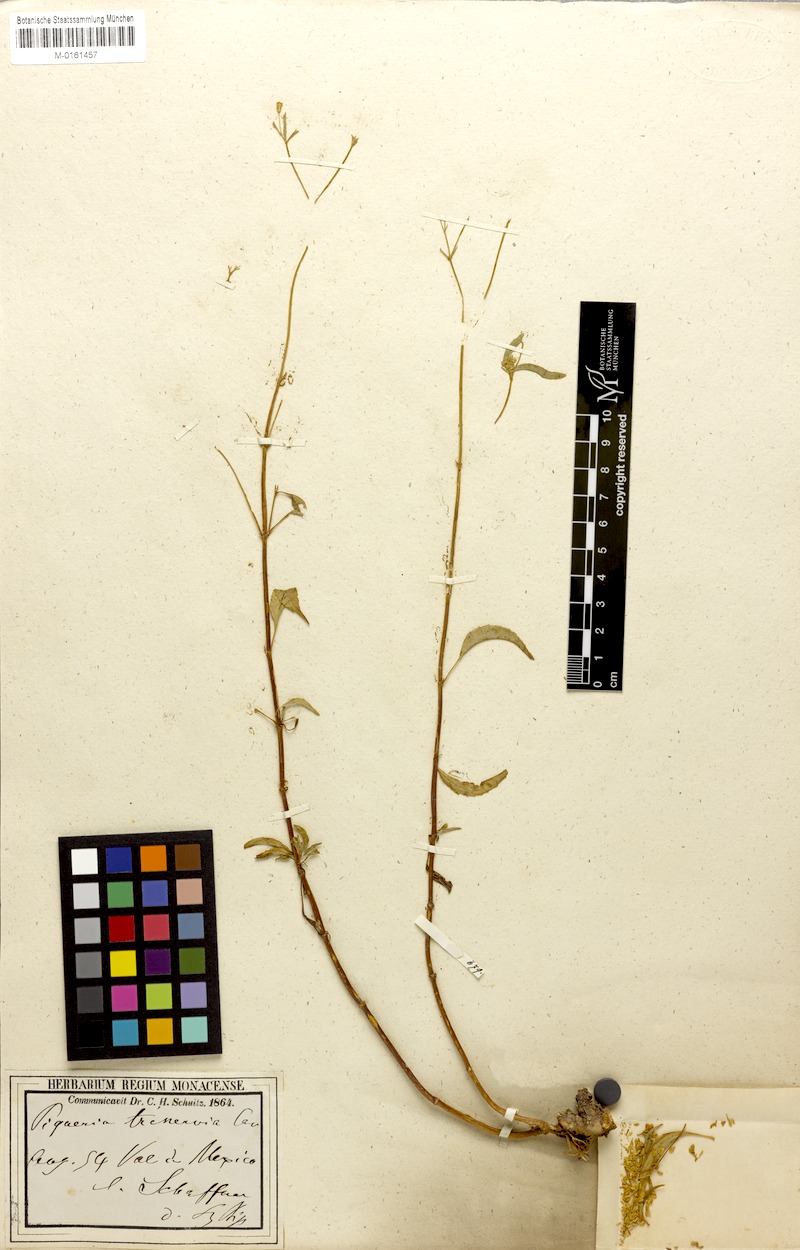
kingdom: Plantae
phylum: Tracheophyta
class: Magnoliopsida
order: Asterales
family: Asteraceae
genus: Piqueria
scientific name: Piqueria trinervia
